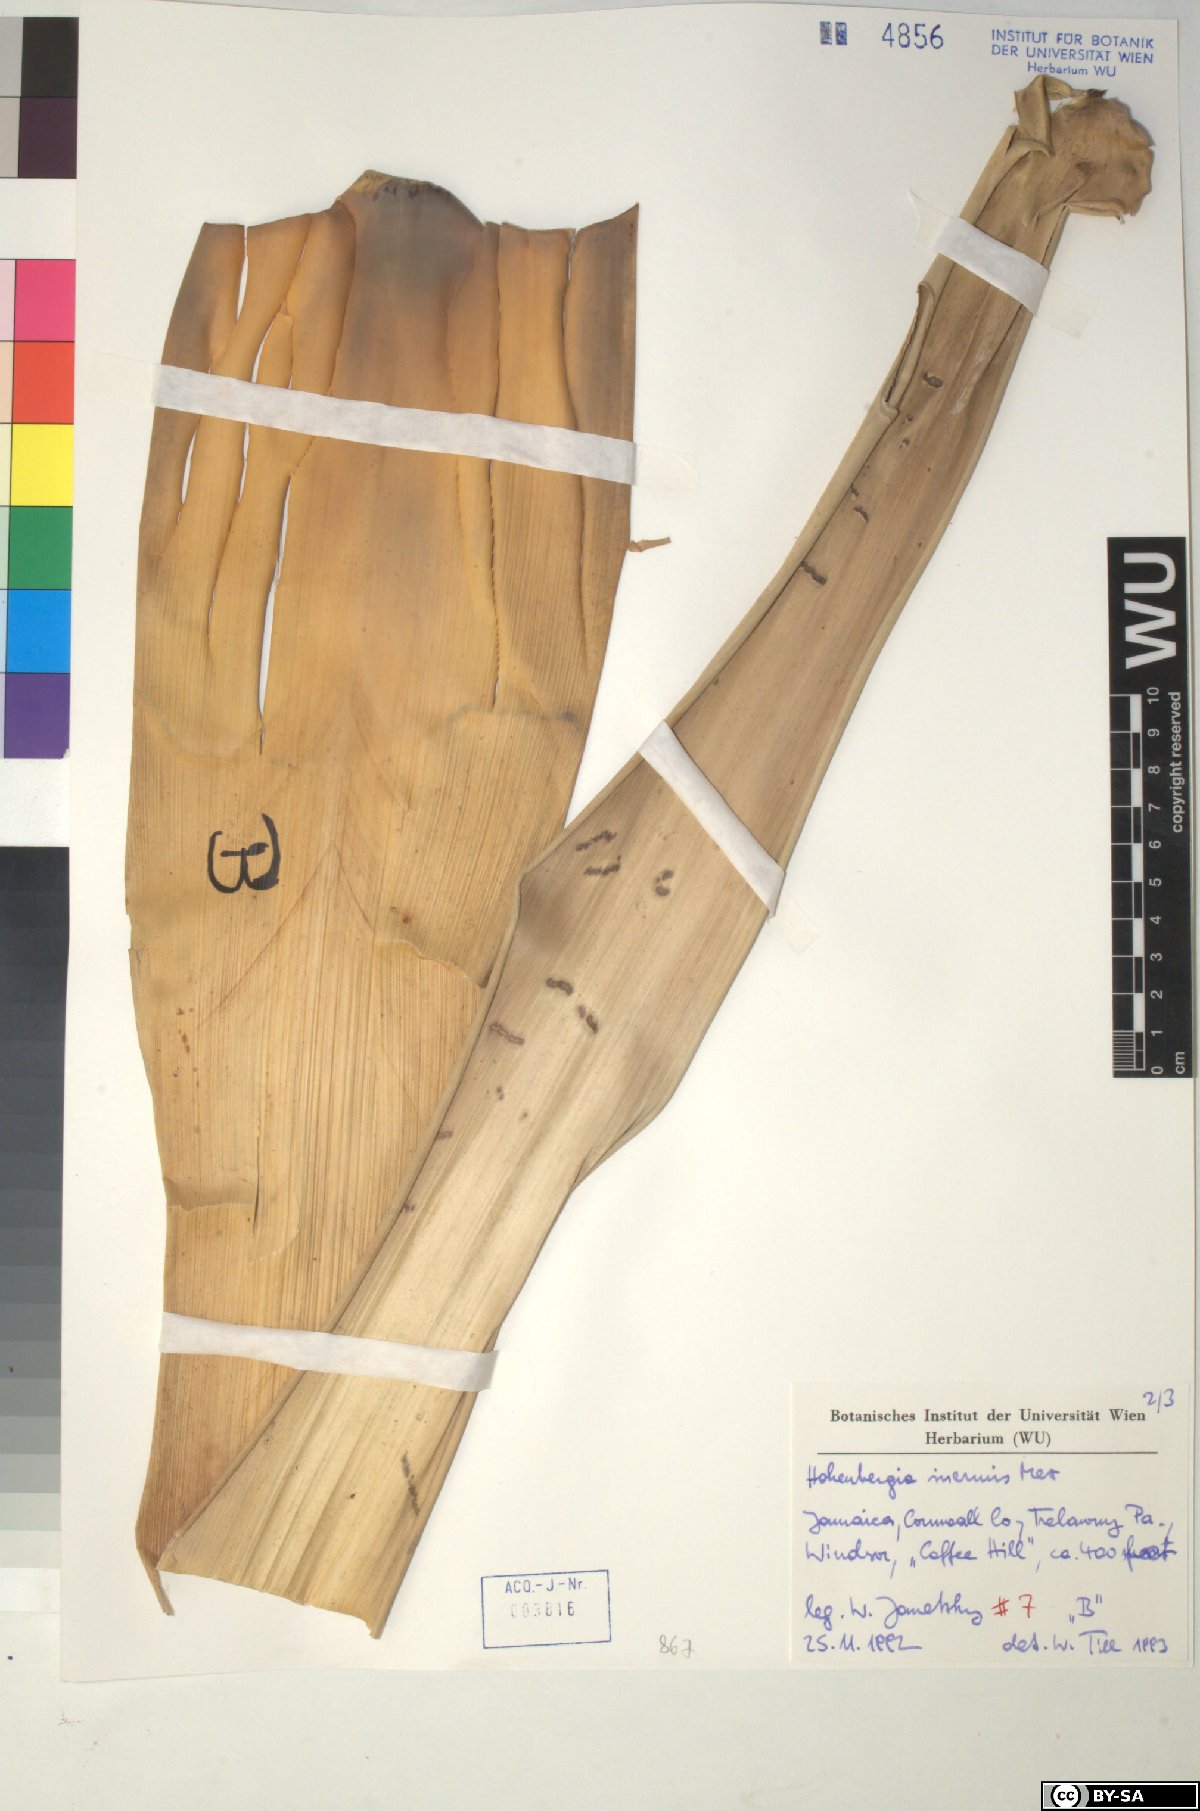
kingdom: Plantae
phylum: Tracheophyta
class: Liliopsida
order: Poales
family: Bromeliaceae
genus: Wittmackia
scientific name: Wittmackia inermis
